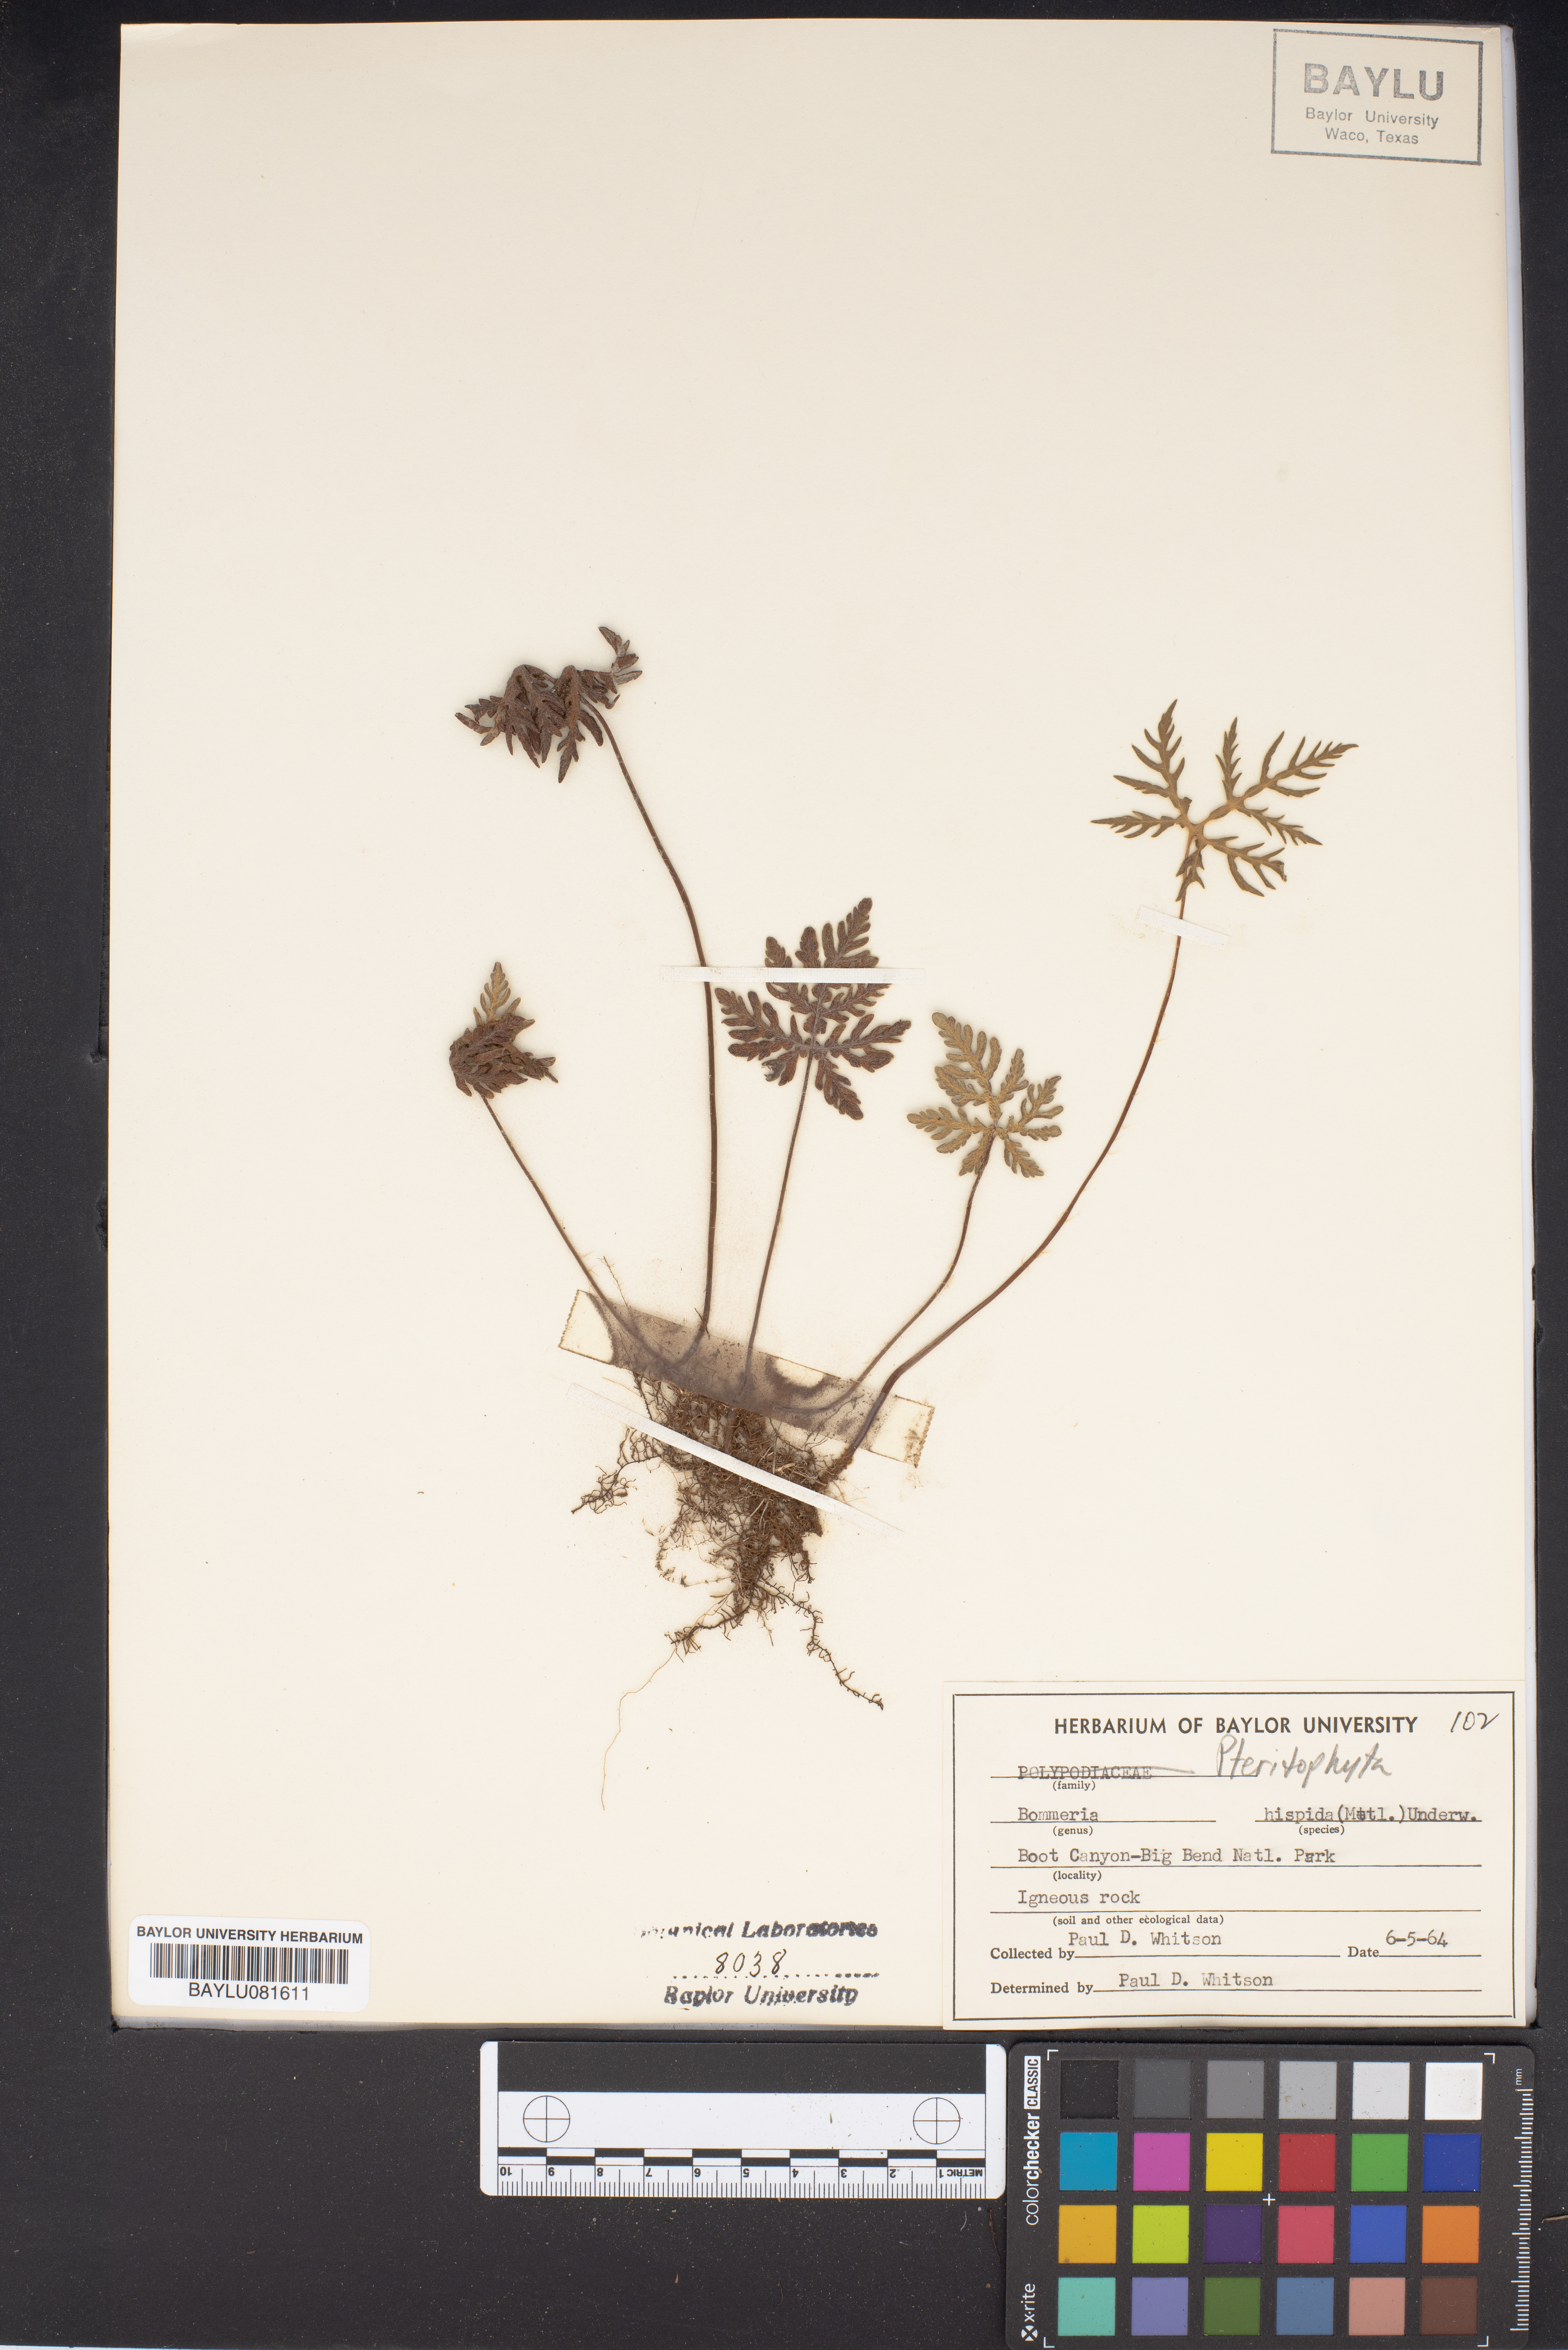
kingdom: Plantae
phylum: Tracheophyta
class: Polypodiopsida
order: Polypodiales
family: Pteridaceae
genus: Bommeria
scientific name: Bommeria hispida
